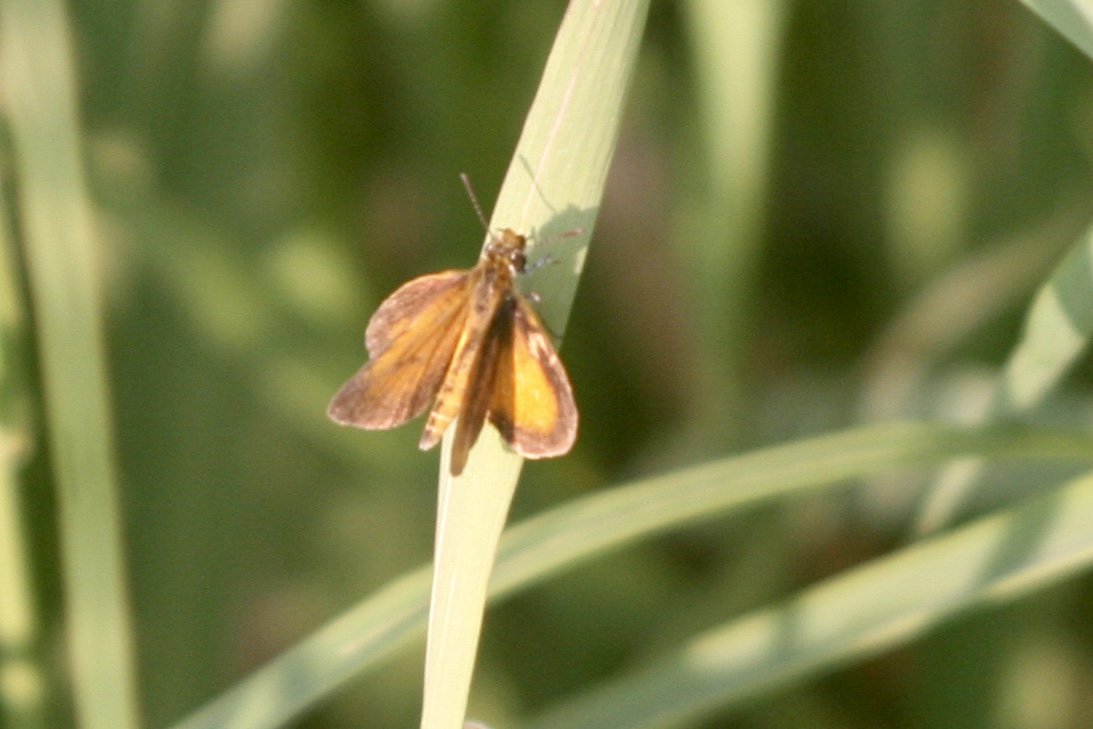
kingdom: Animalia
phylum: Arthropoda
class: Insecta
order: Lepidoptera
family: Hesperiidae
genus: Ancyloxypha
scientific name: Ancyloxypha numitor
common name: Least Skipper
